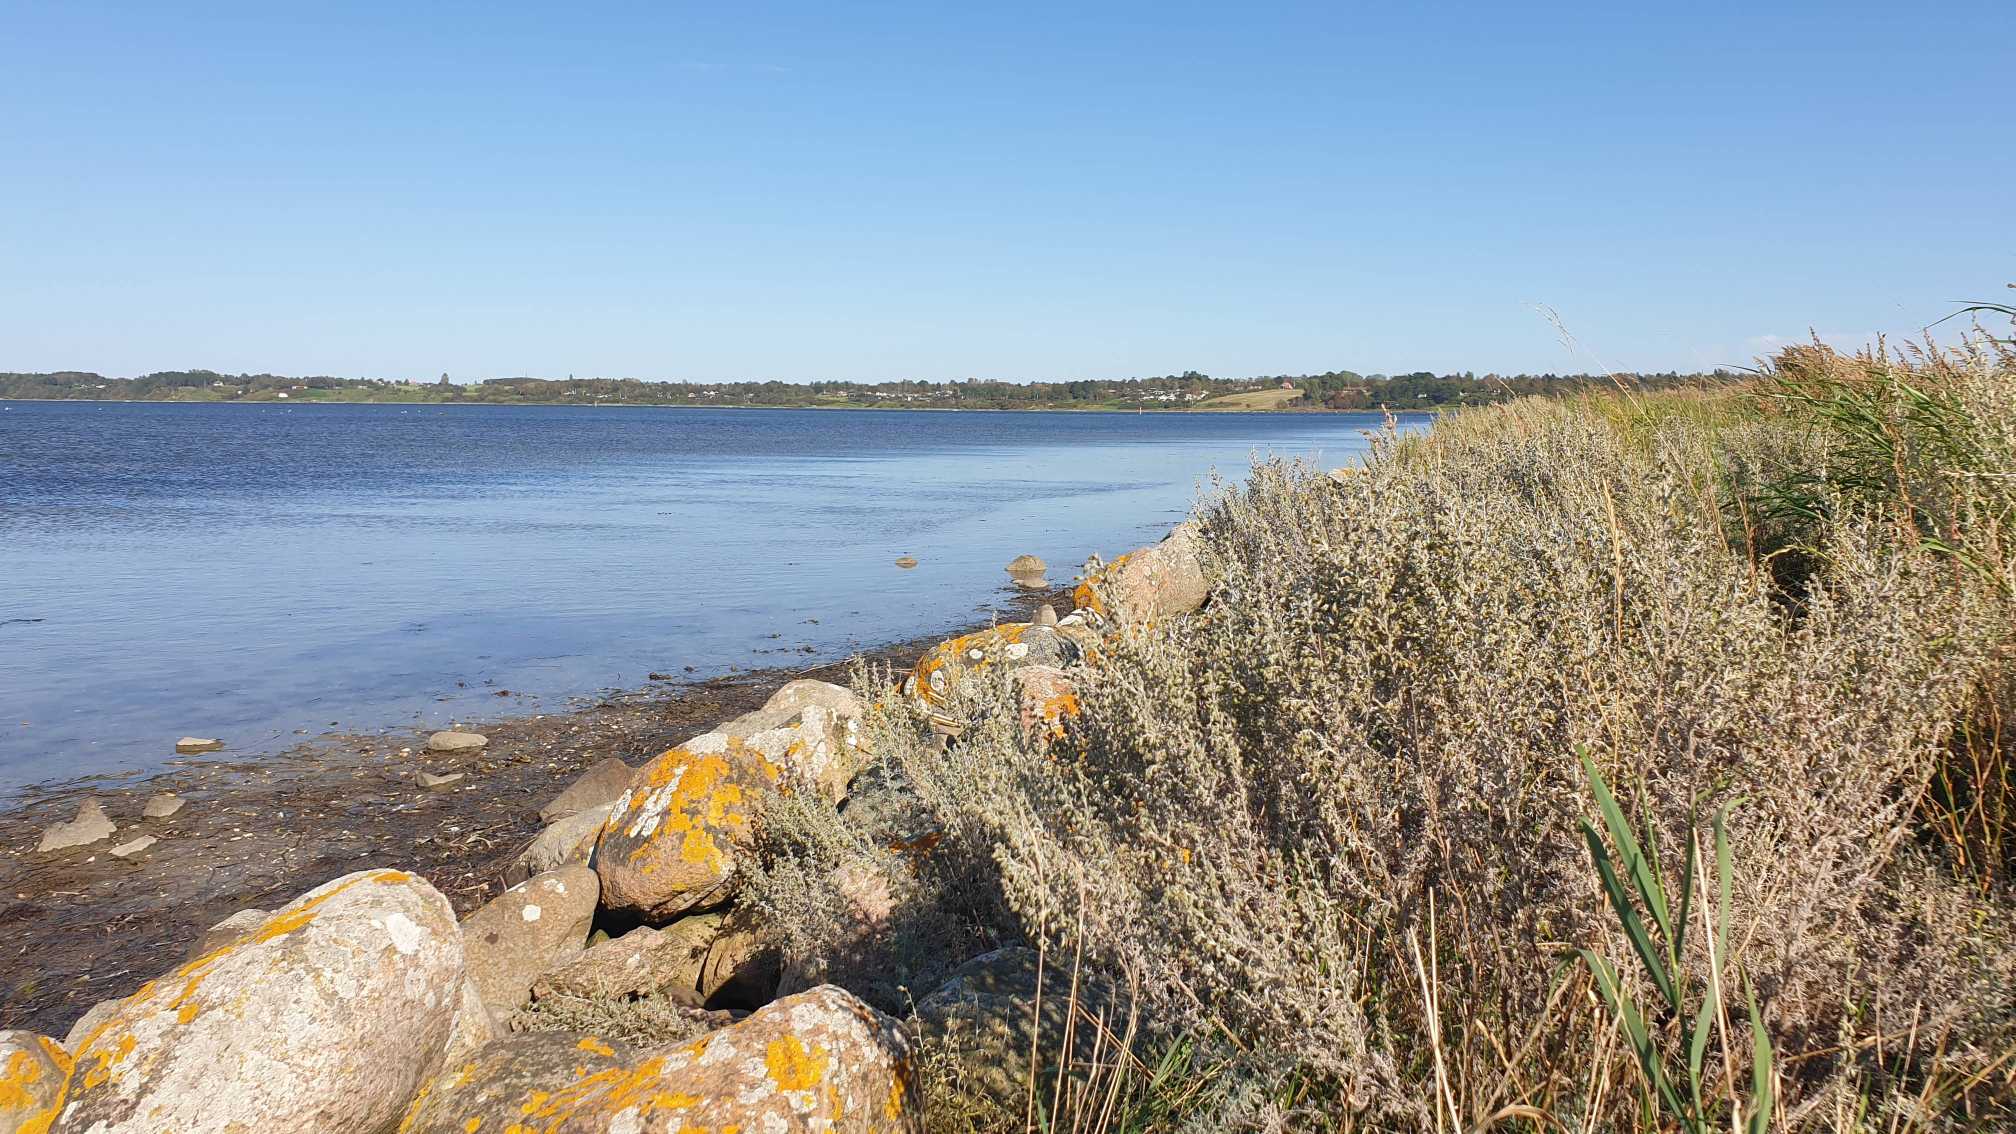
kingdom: Plantae
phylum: Tracheophyta
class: Magnoliopsida
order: Asterales
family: Asteraceae
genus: Artemisia
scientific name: Artemisia maritima
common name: Strandmalurt
